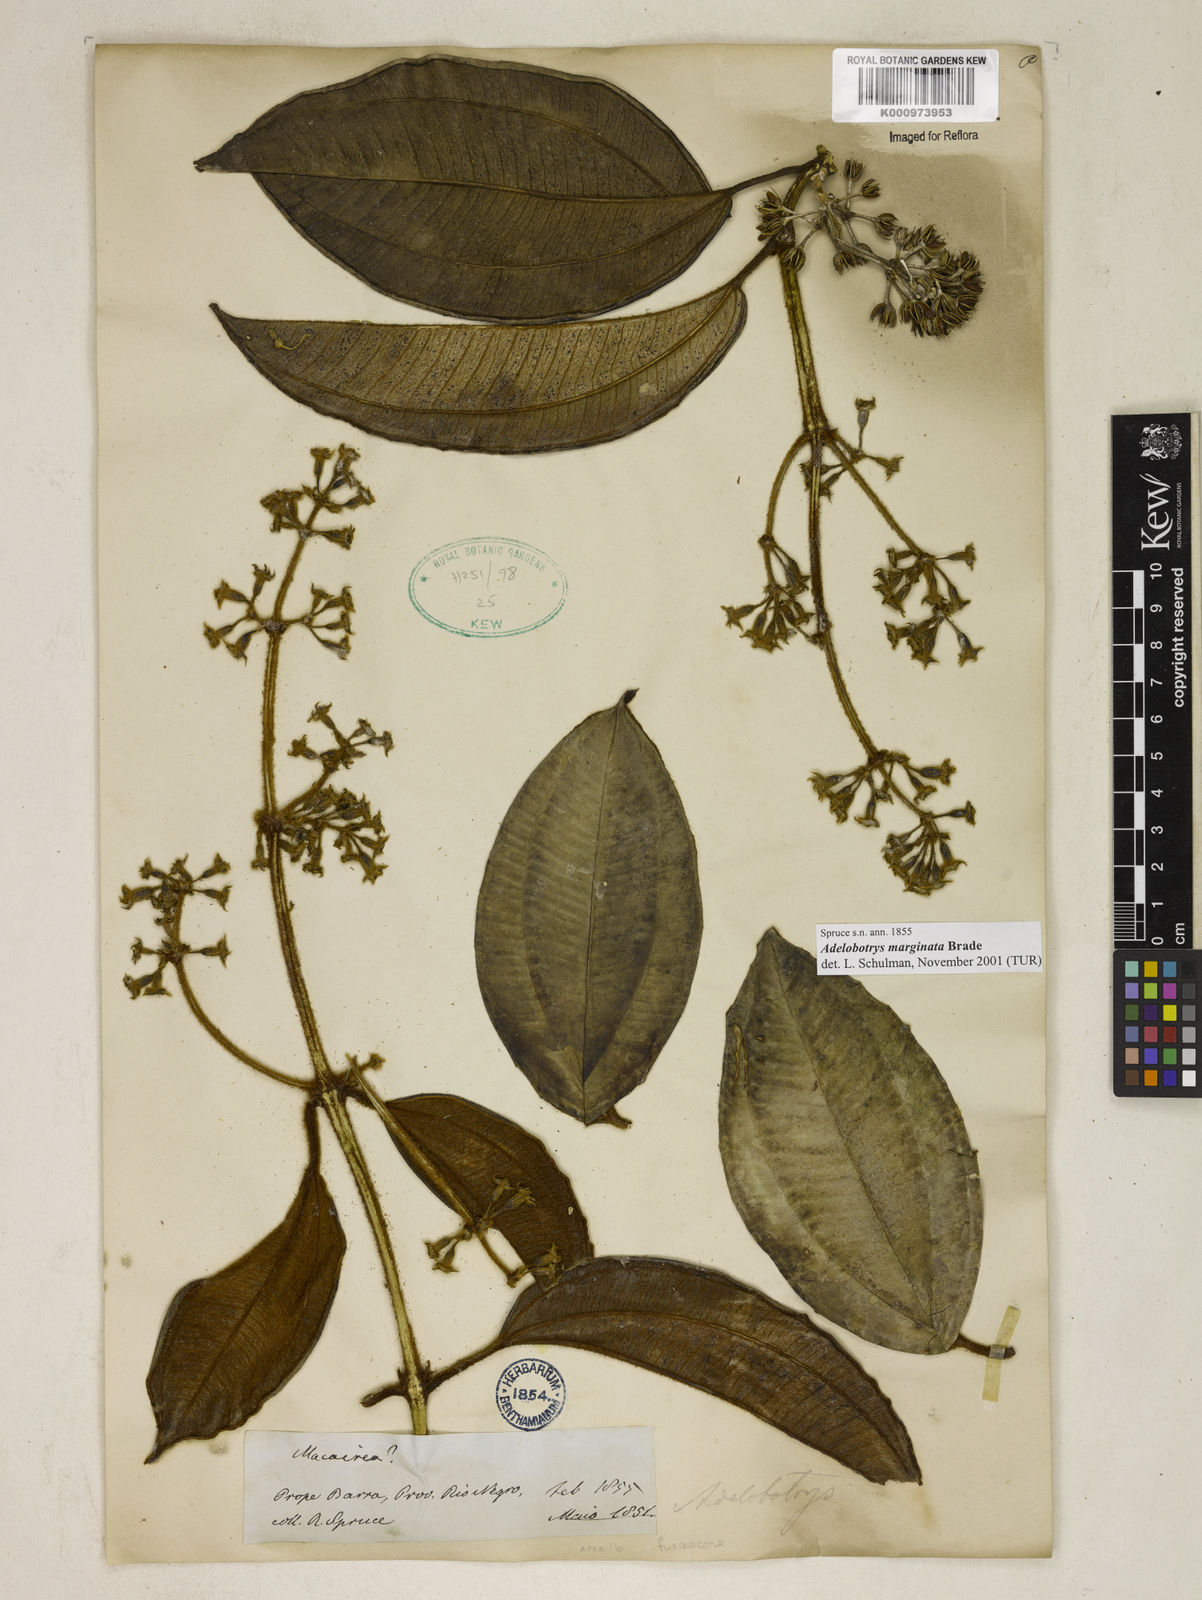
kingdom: Plantae
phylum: Tracheophyta
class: Magnoliopsida
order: Myrtales
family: Melastomataceae
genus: Adelobotrys
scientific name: Adelobotrys marginatus
